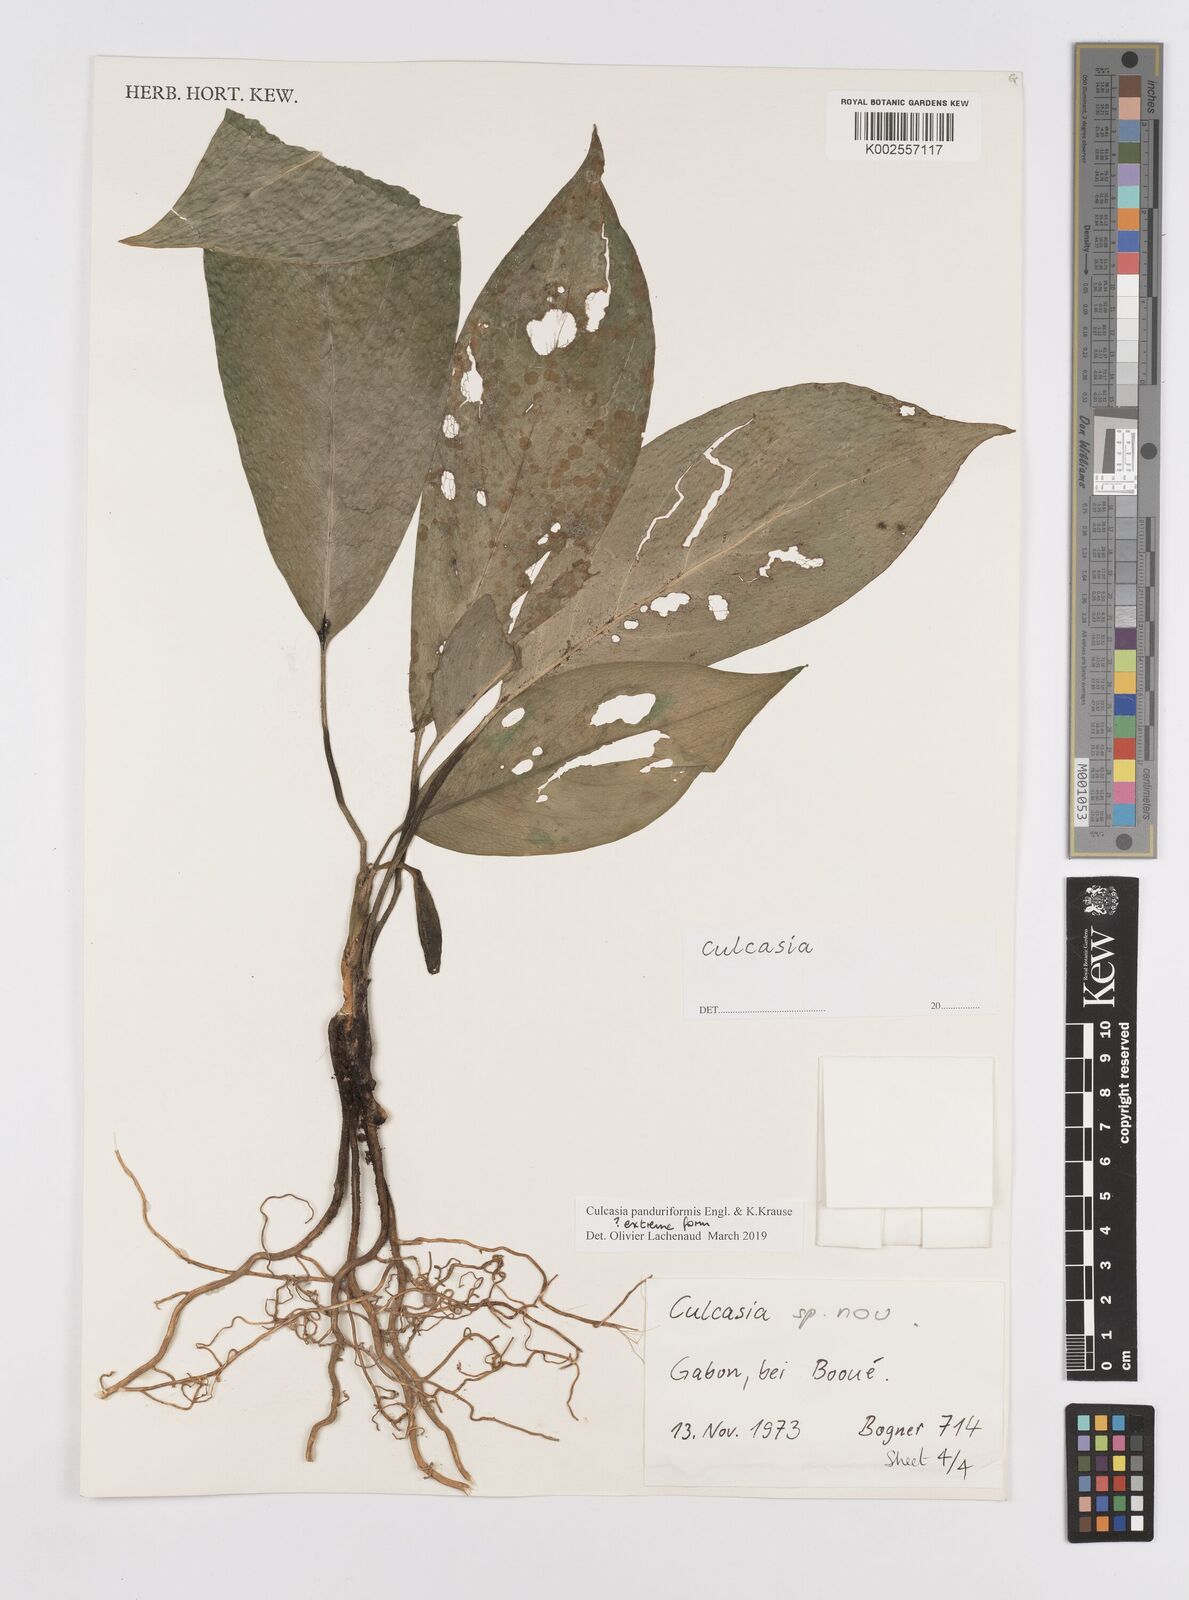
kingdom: Plantae
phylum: Tracheophyta
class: Liliopsida
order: Alismatales
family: Araceae
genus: Culcasia
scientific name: Culcasia panduriformis
